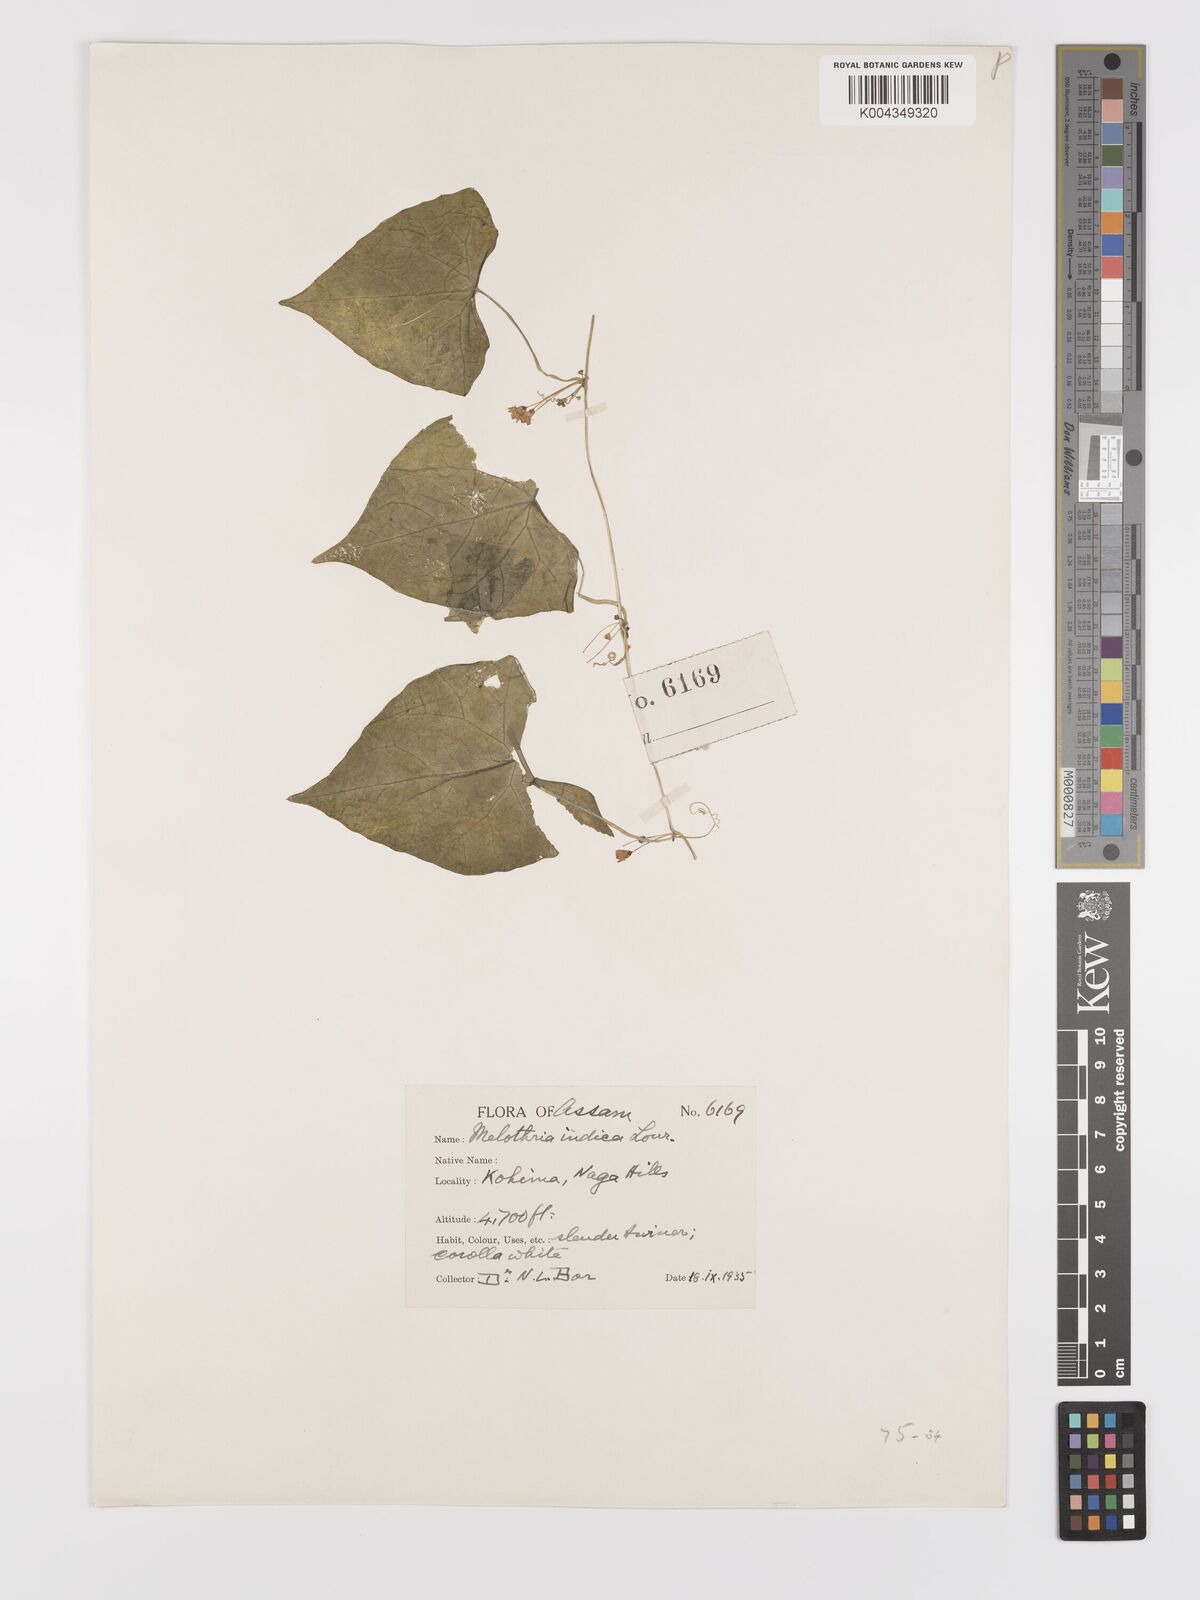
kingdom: Plantae
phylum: Tracheophyta
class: Magnoliopsida
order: Cucurbitales
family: Cucurbitaceae
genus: Zehneria
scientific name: Zehneria odorata
